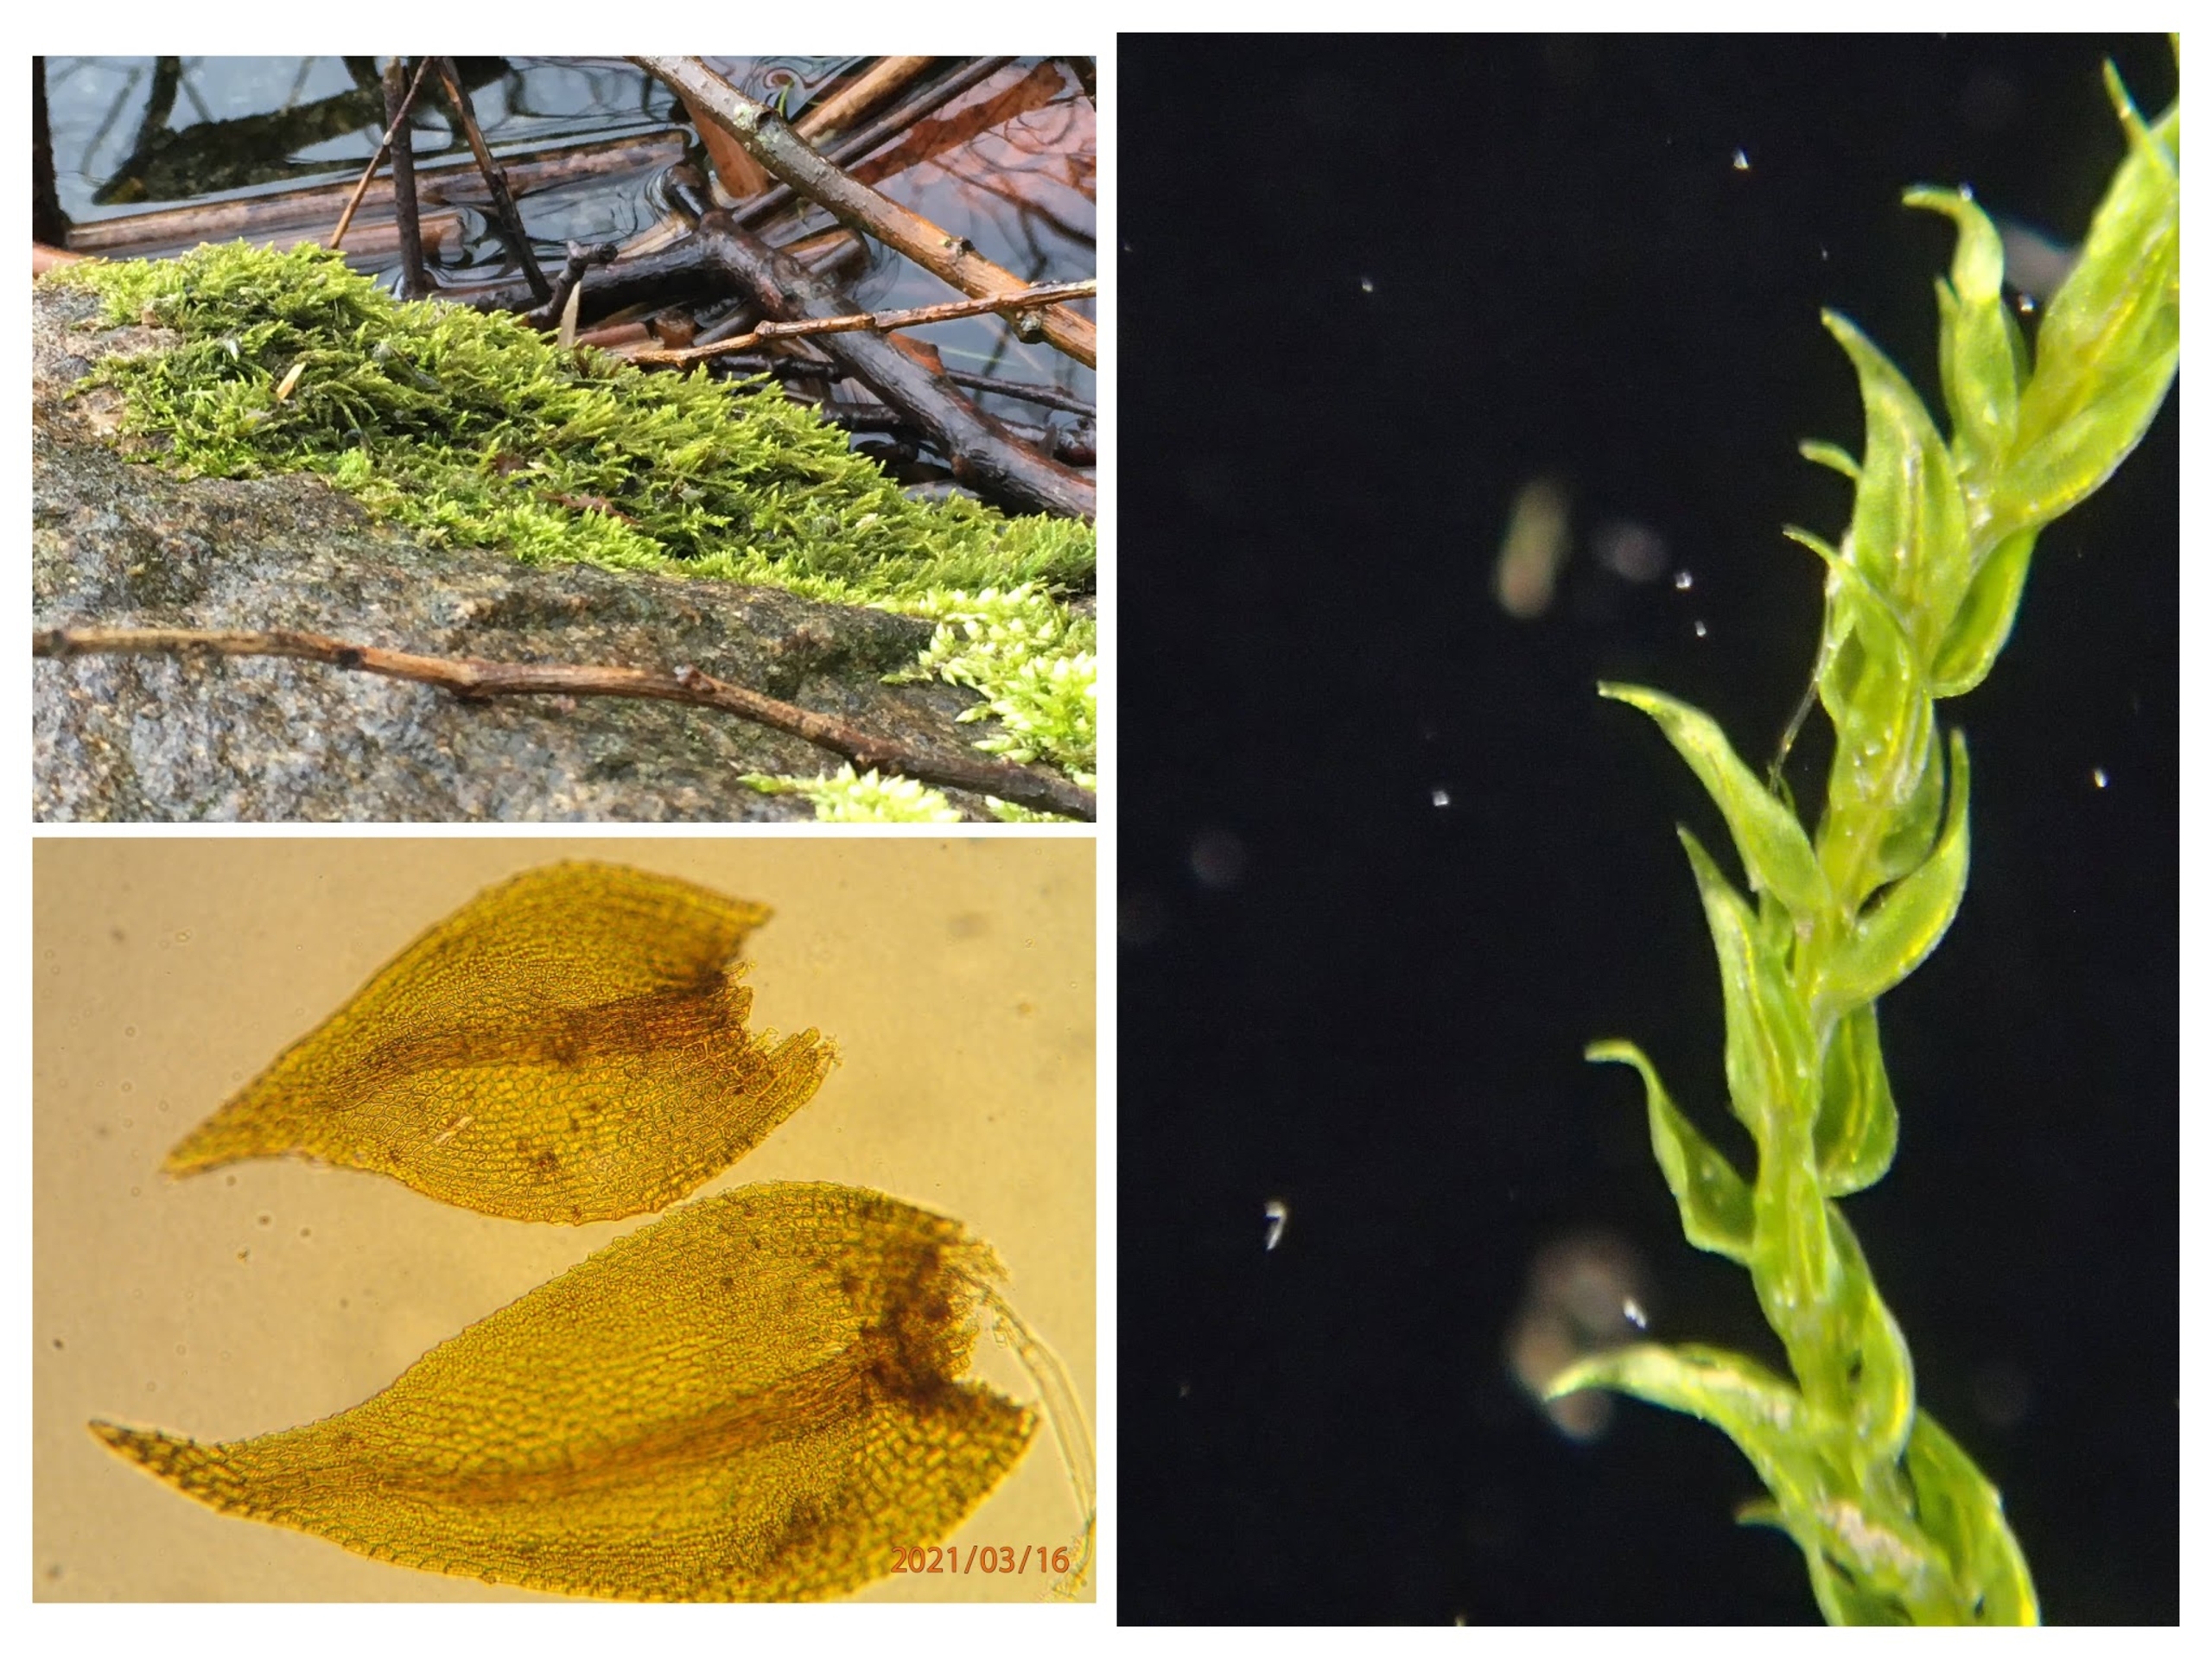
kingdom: Plantae
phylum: Bryophyta
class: Bryopsida
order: Hypnales
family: Amblystegiaceae
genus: Hygroamblystegium
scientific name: Hygroamblystegium tenax
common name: Stiv vandkrybmos
